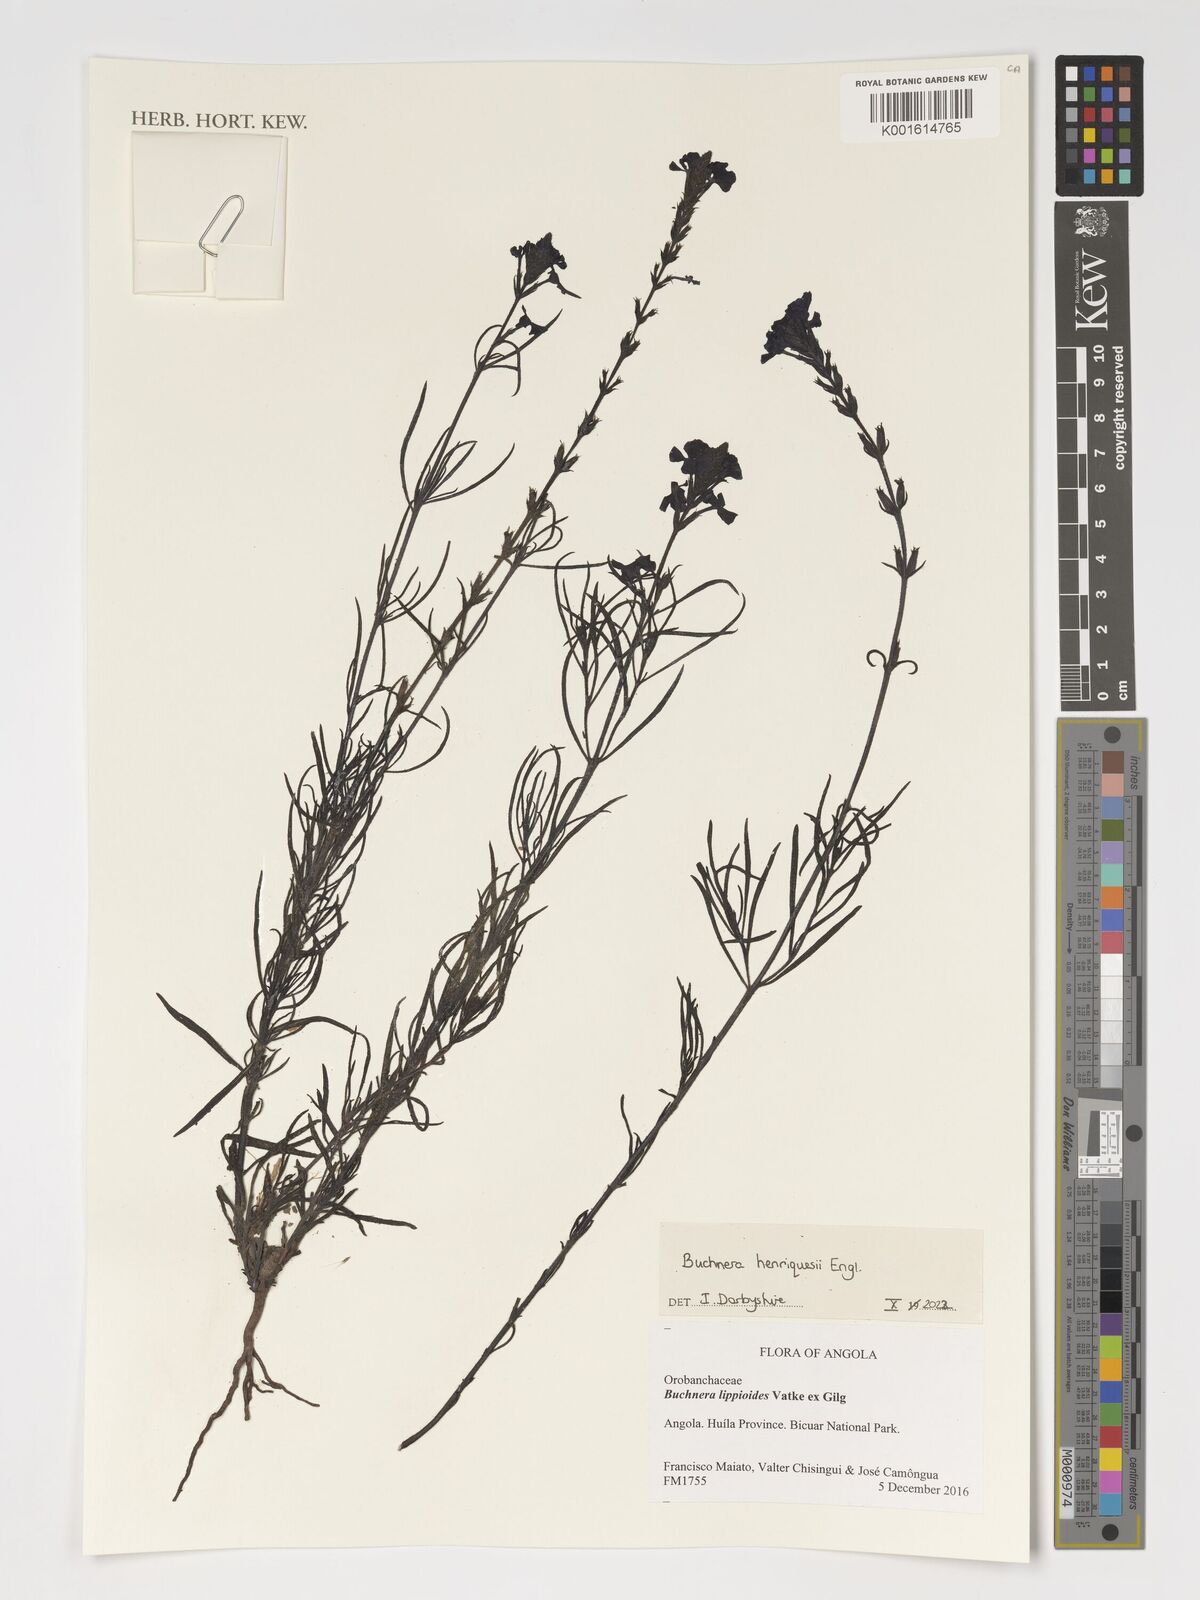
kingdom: Plantae
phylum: Tracheophyta
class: Magnoliopsida
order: Lamiales
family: Orobanchaceae
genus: Buchnera
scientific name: Buchnera henriquesii
